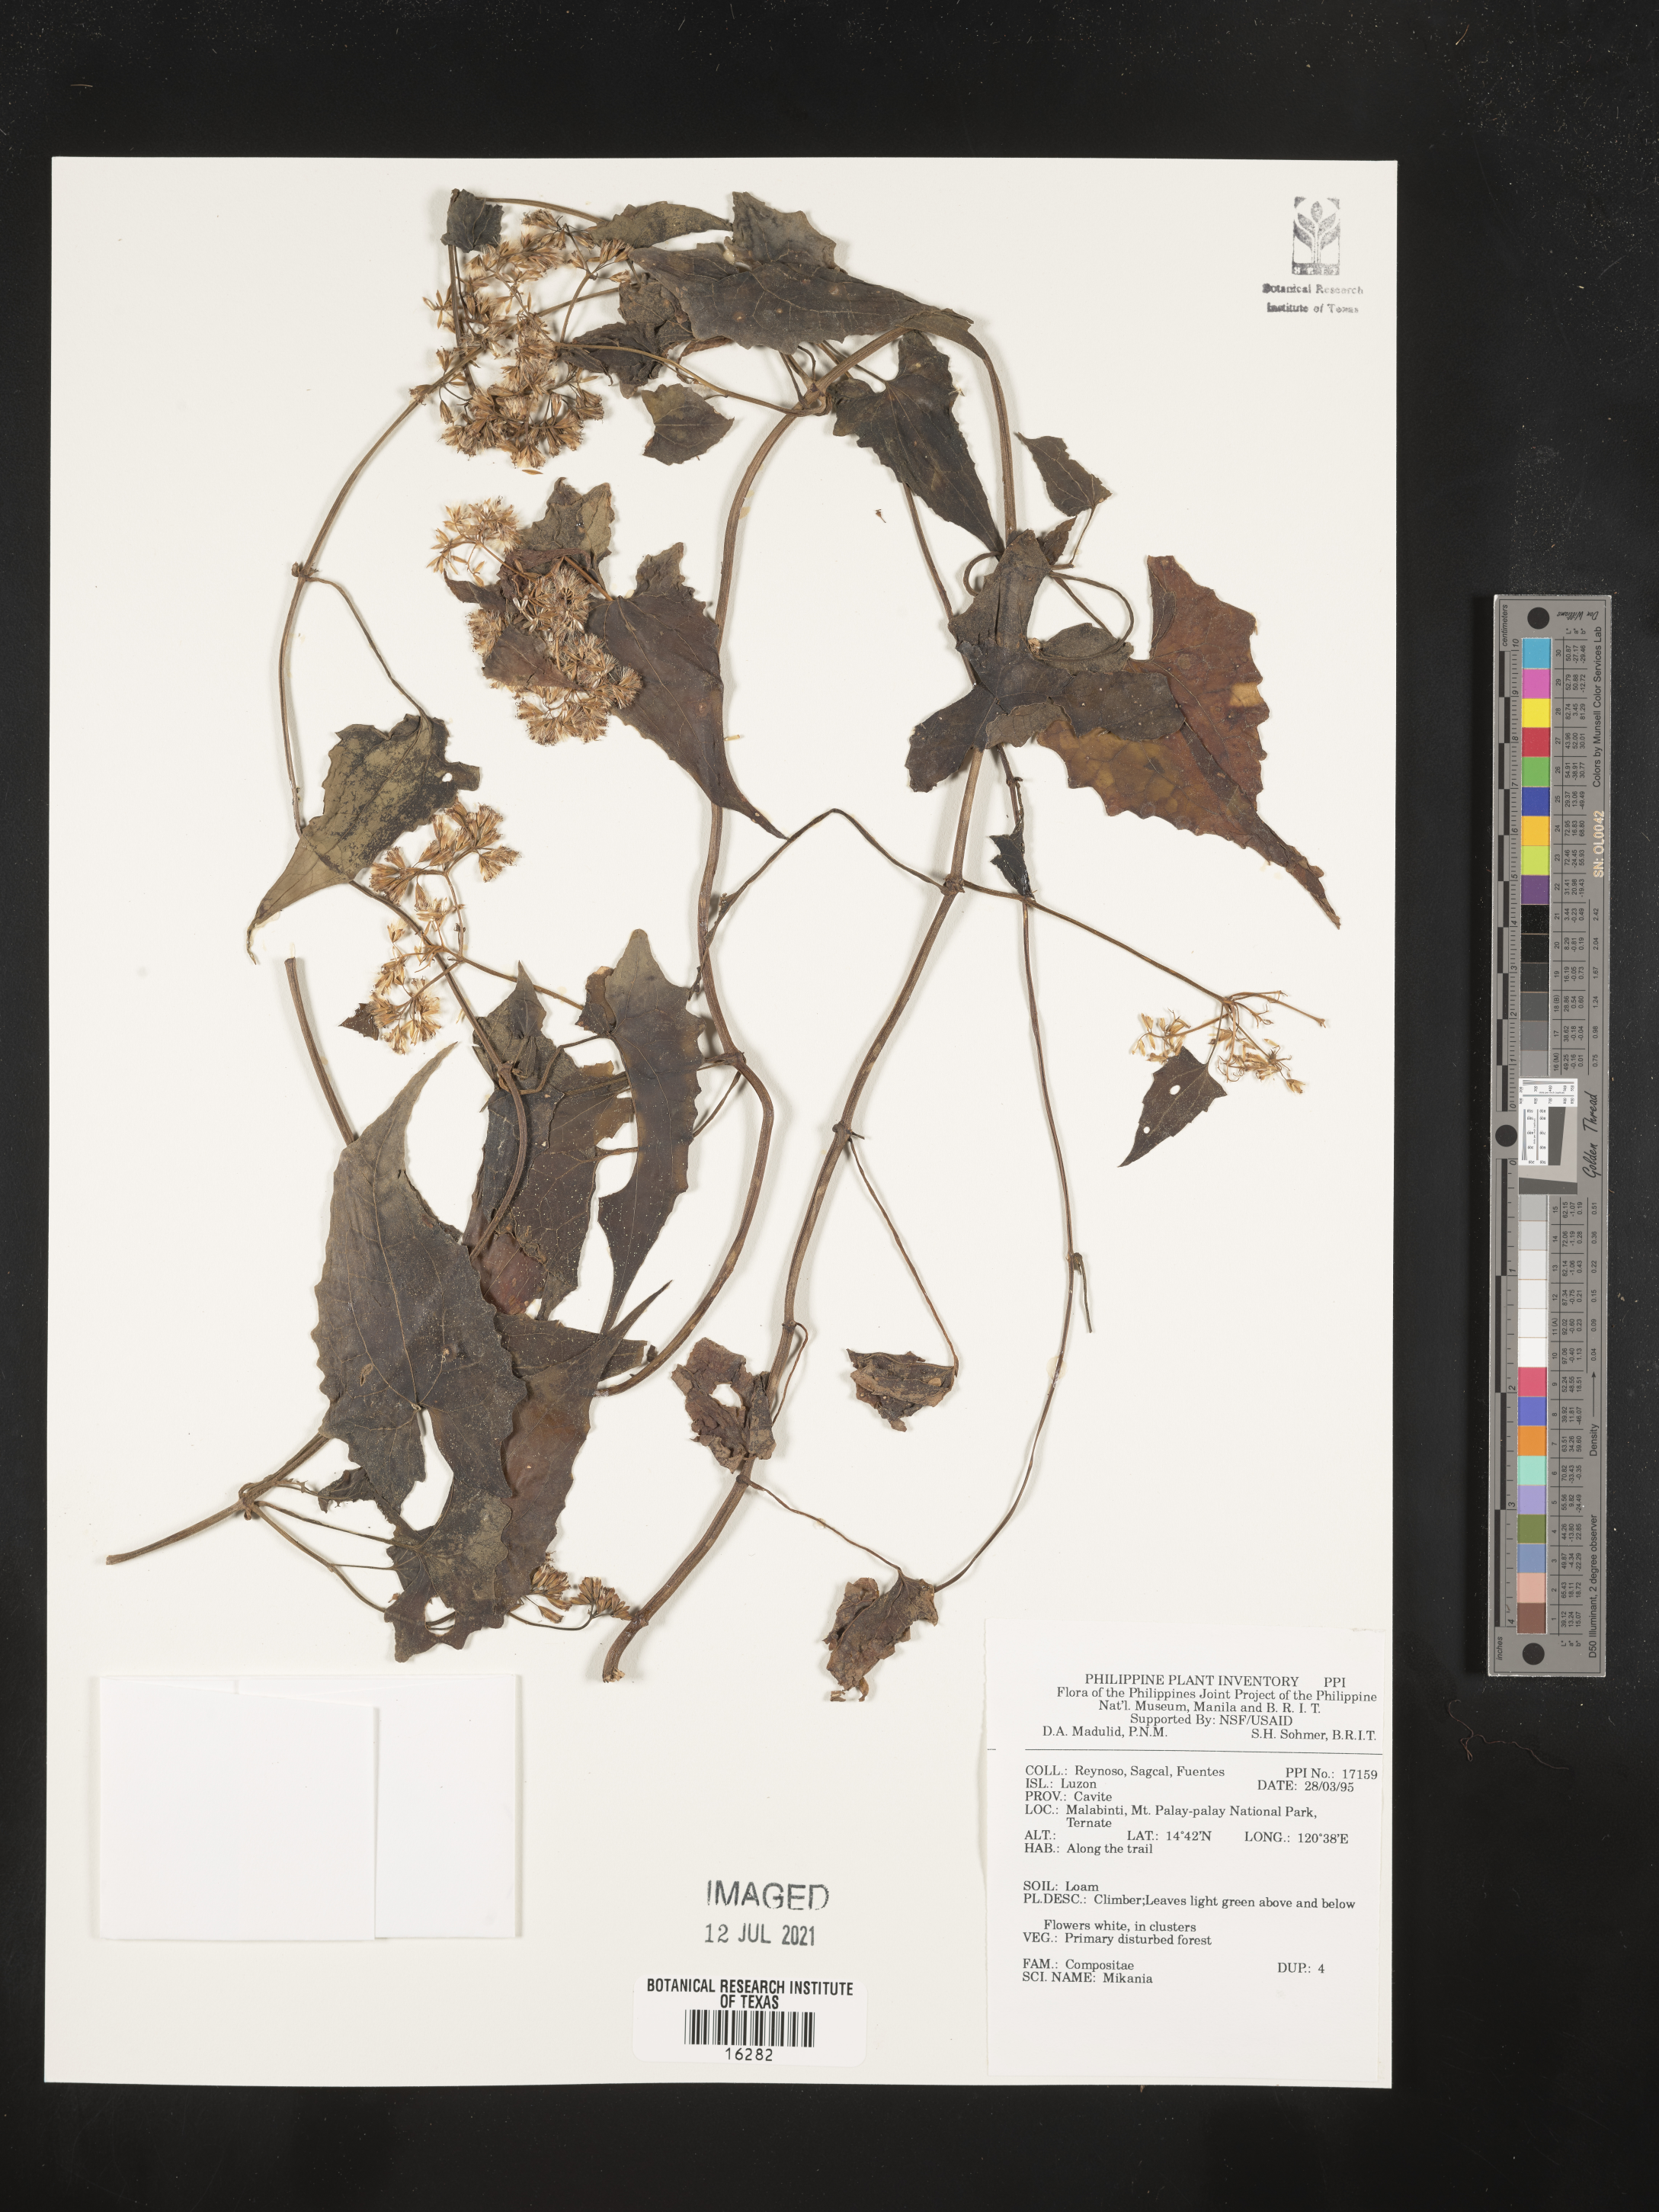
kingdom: Plantae
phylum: Tracheophyta
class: Magnoliopsida
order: Asterales
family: Asteraceae
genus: Mikania
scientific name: Mikania
